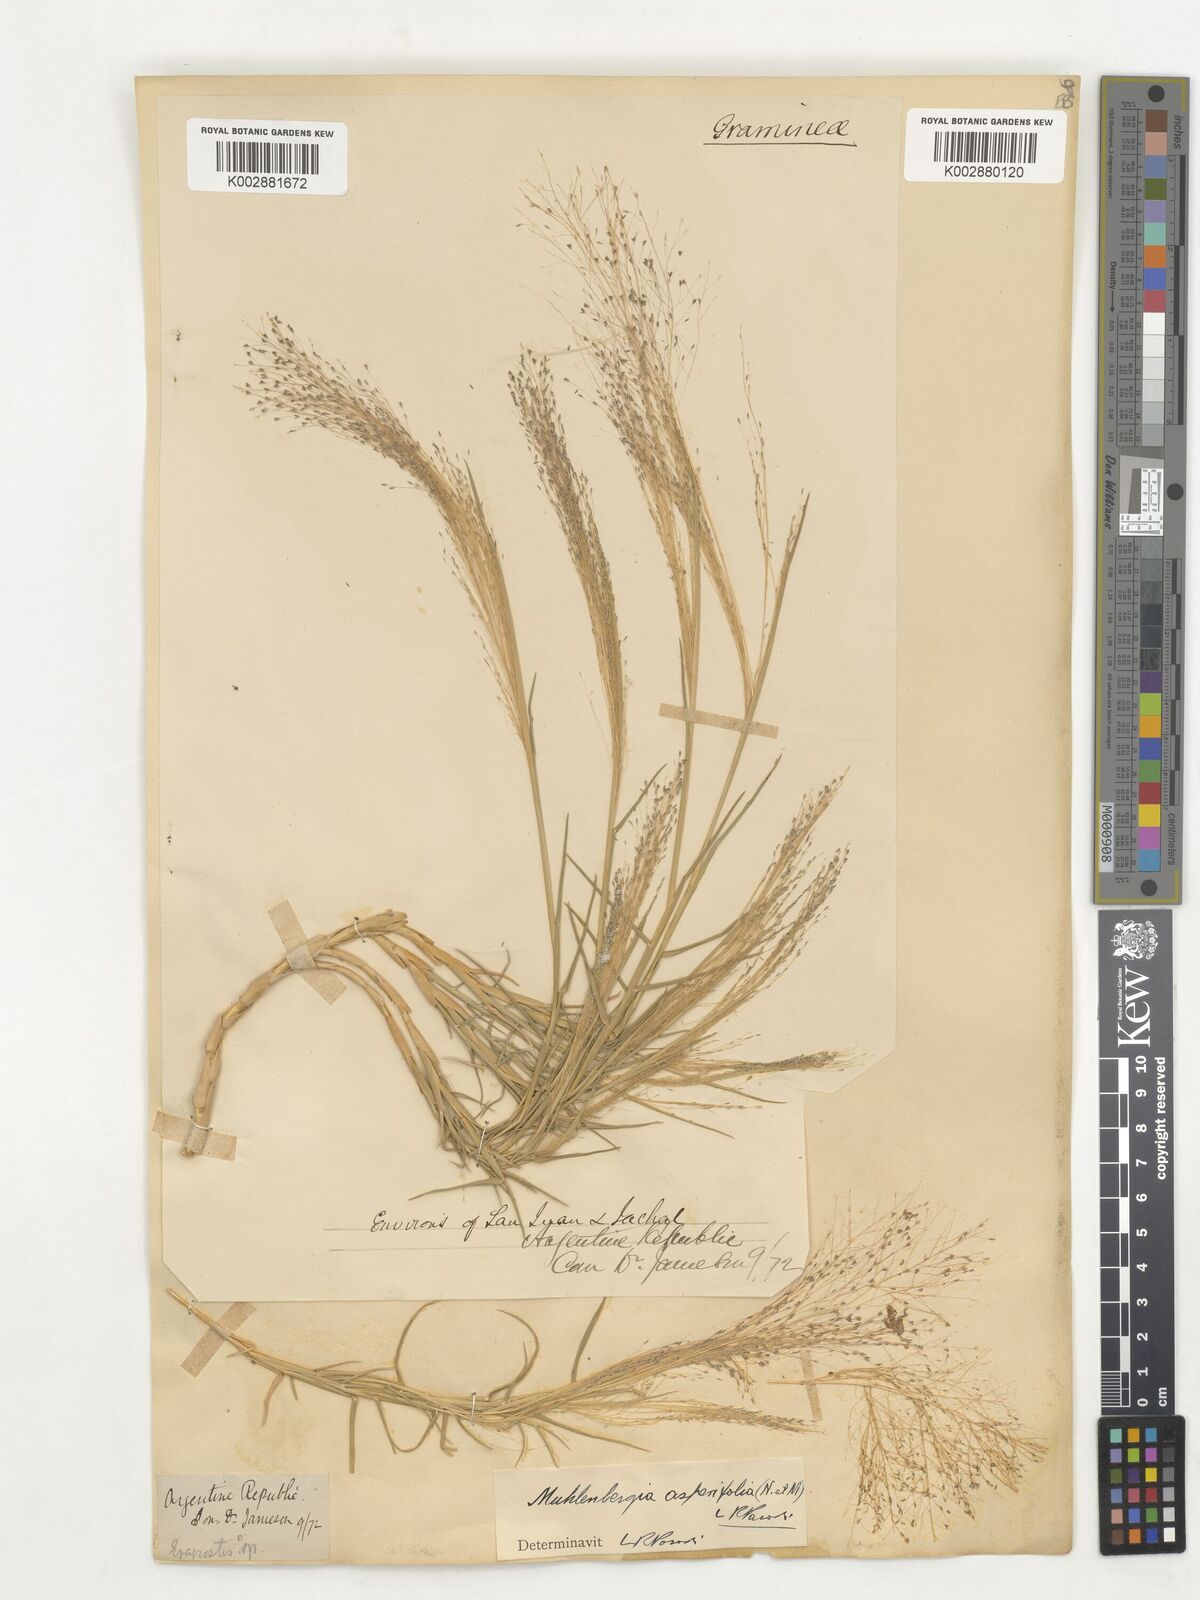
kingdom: Plantae
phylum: Tracheophyta
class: Liliopsida
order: Poales
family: Poaceae
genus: Muhlenbergia
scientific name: Muhlenbergia asperifolia
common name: Alkali muhly
